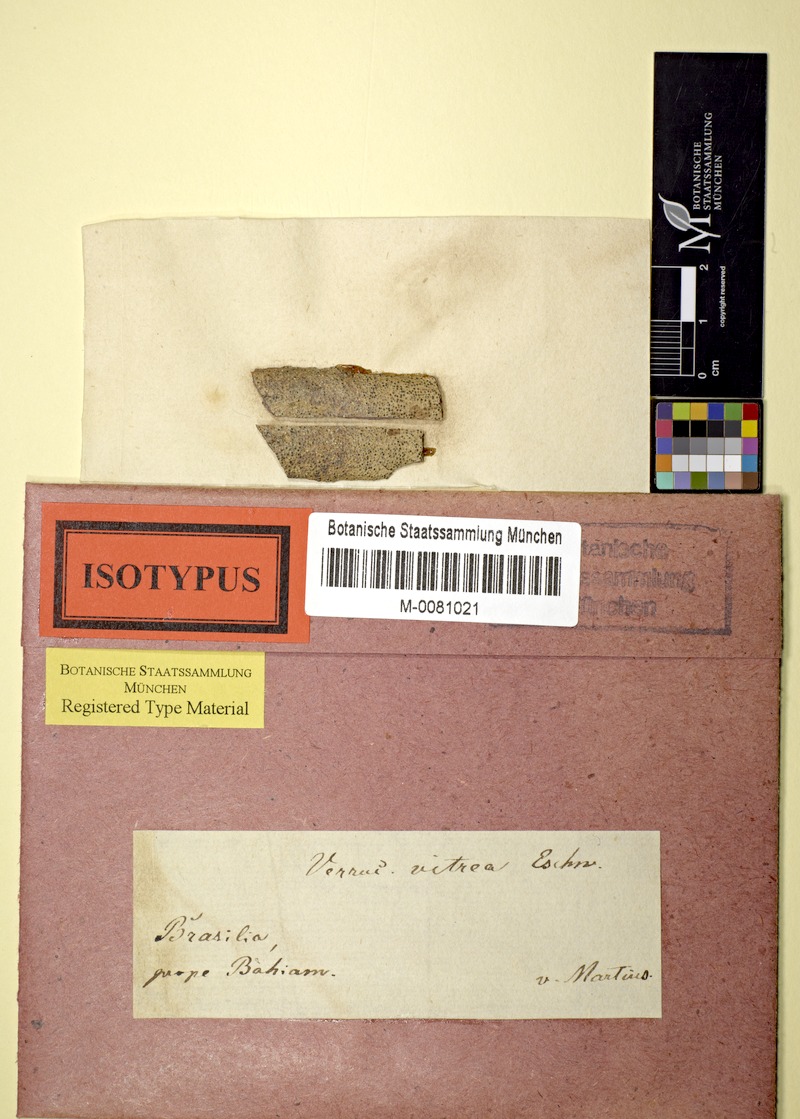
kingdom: Fungi
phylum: Ascomycota
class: Eurotiomycetes
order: Pyrenulales
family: Pyrenulaceae
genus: Pyrenula
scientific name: Pyrenula
